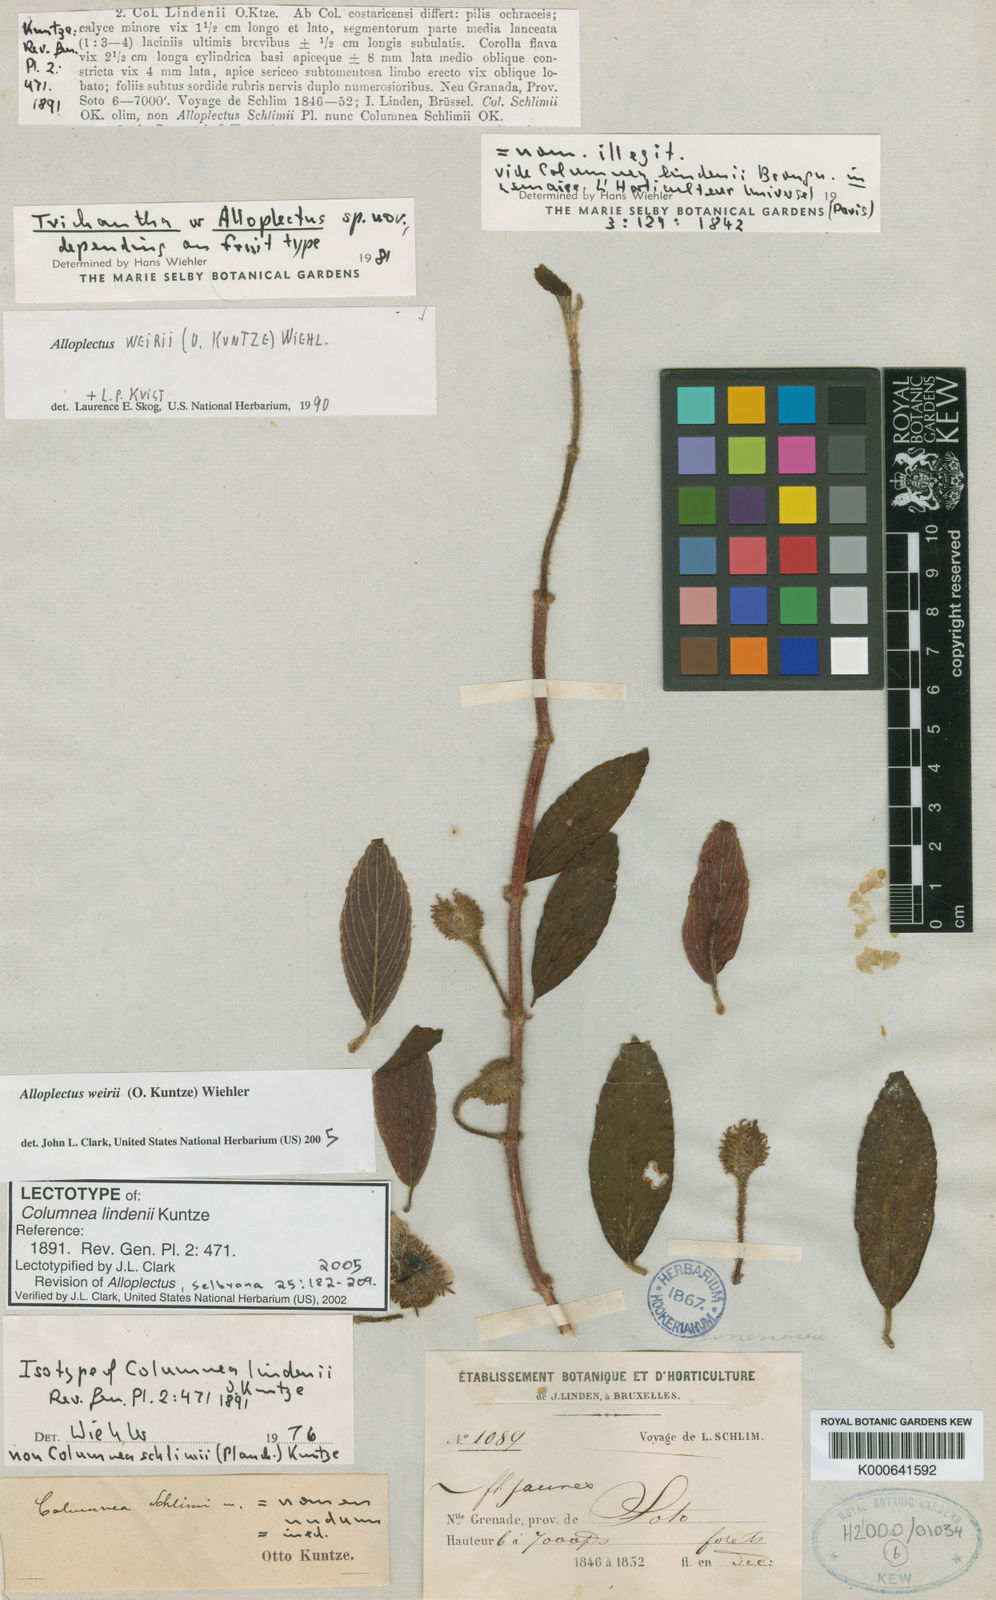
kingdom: Plantae
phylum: Tracheophyta
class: Magnoliopsida
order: Lamiales
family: Gesneriaceae
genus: Alloplectus
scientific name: Alloplectus weirii
